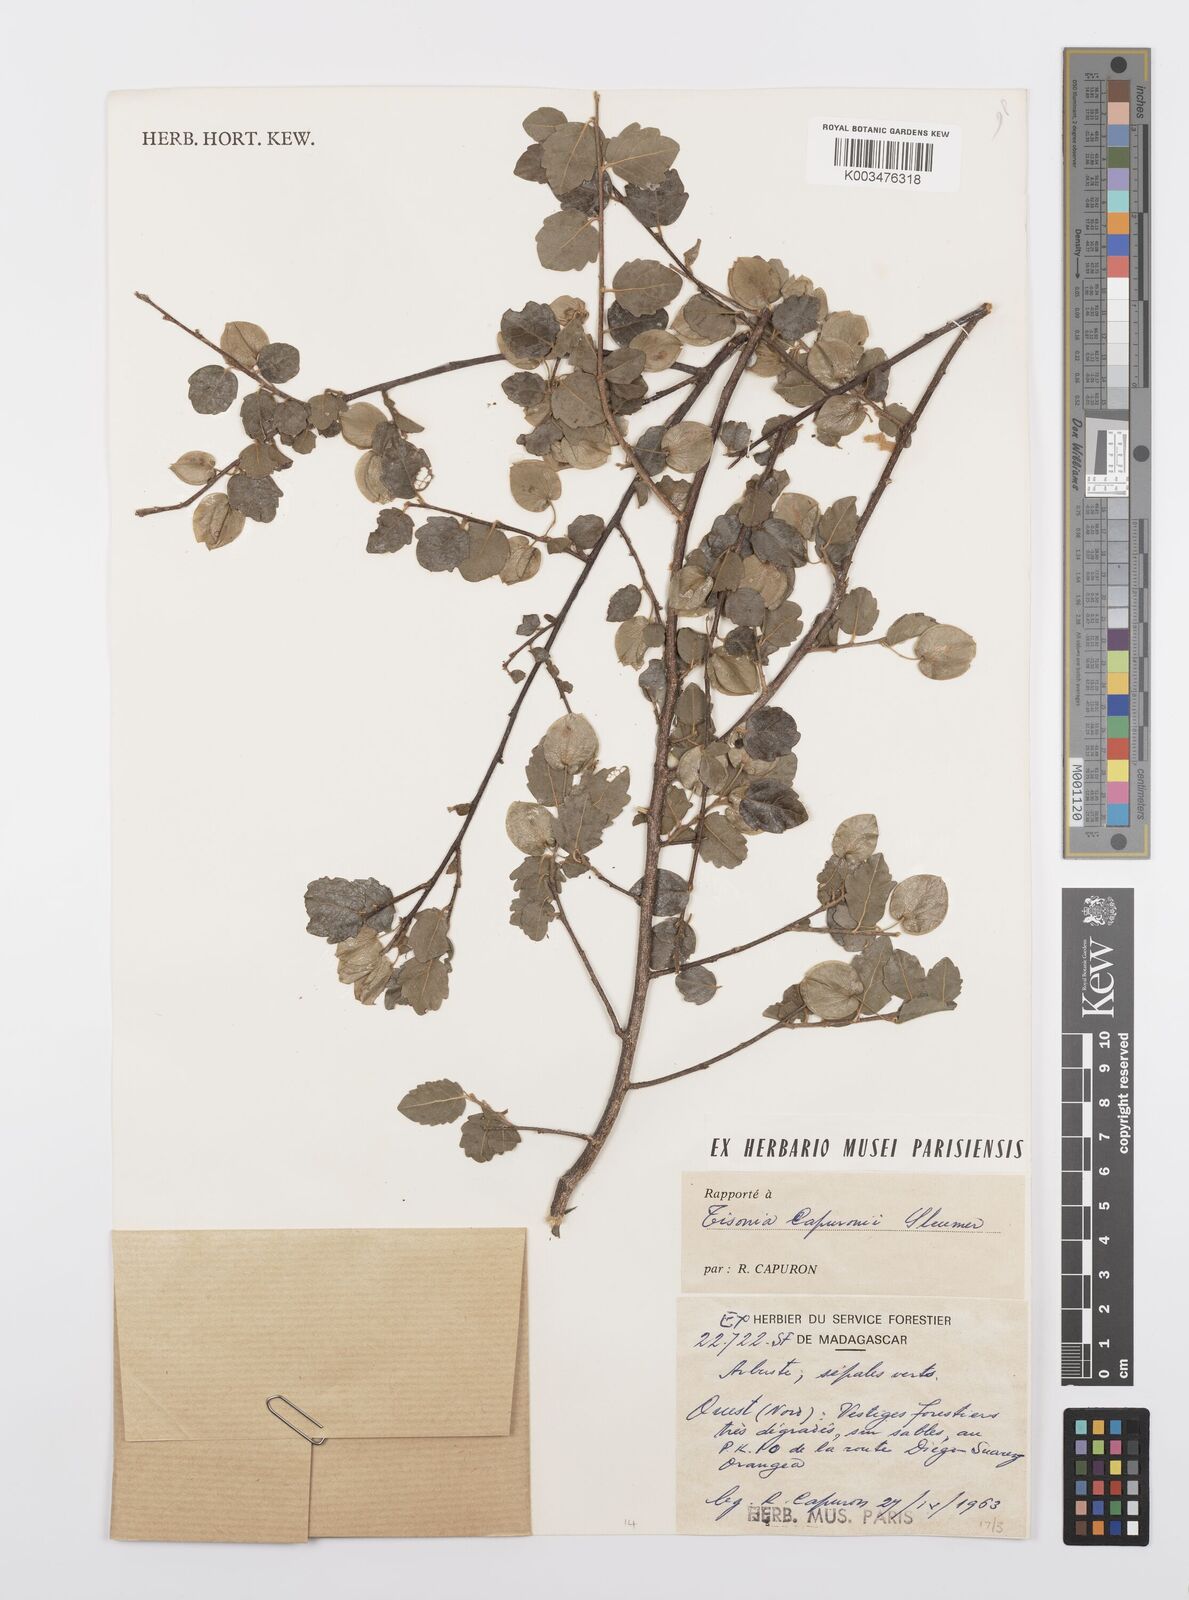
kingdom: Plantae
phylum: Tracheophyta
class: Magnoliopsida
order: Malpighiales
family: Salicaceae
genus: Tisonia
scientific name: Tisonia capuronii
